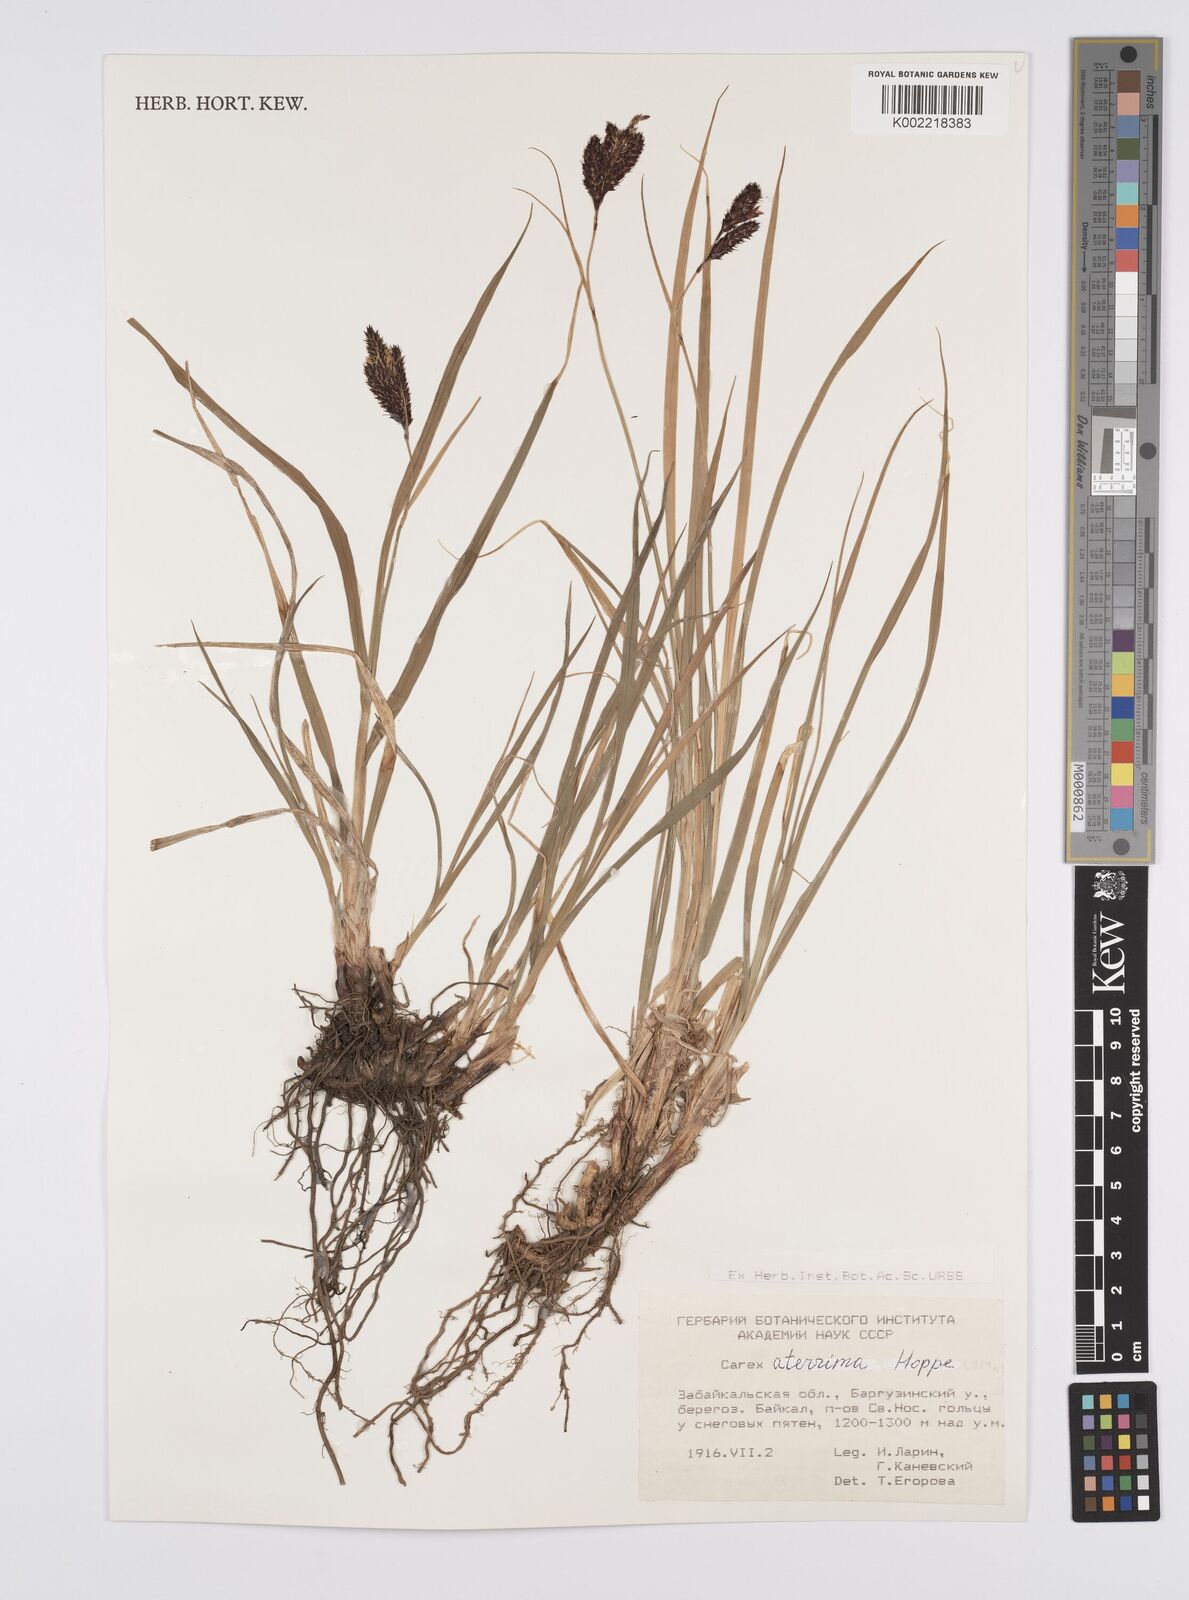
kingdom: Plantae
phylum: Tracheophyta
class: Liliopsida
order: Poales
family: Cyperaceae
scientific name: Cyperaceae
